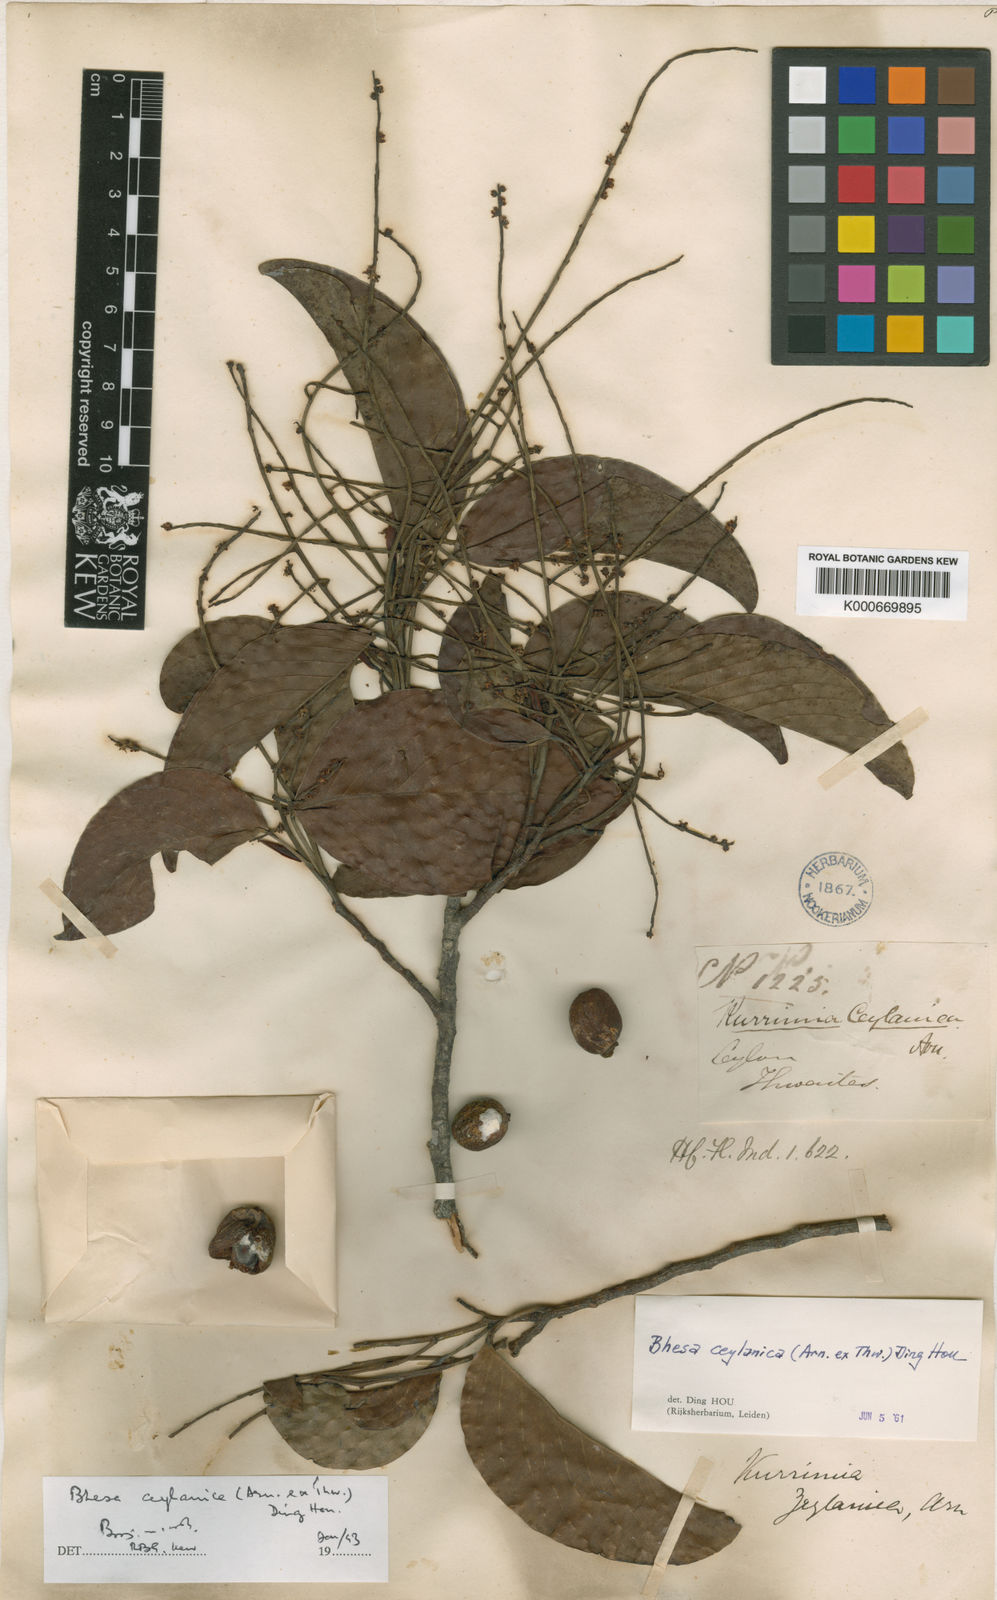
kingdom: Plantae
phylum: Tracheophyta
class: Magnoliopsida
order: Malpighiales
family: Centroplacaceae
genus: Bhesa
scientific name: Bhesa ceylanica
